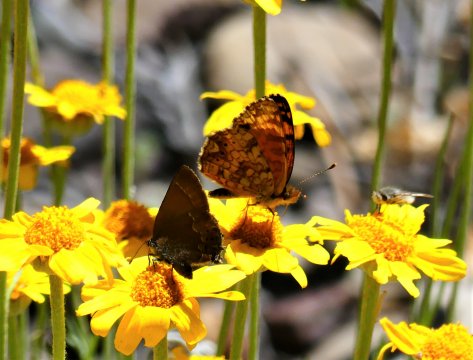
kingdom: Animalia
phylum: Arthropoda
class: Insecta
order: Lepidoptera
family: Nymphalidae
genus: Eresia
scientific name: Eresia aveyrona
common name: Mylitta Crescent
